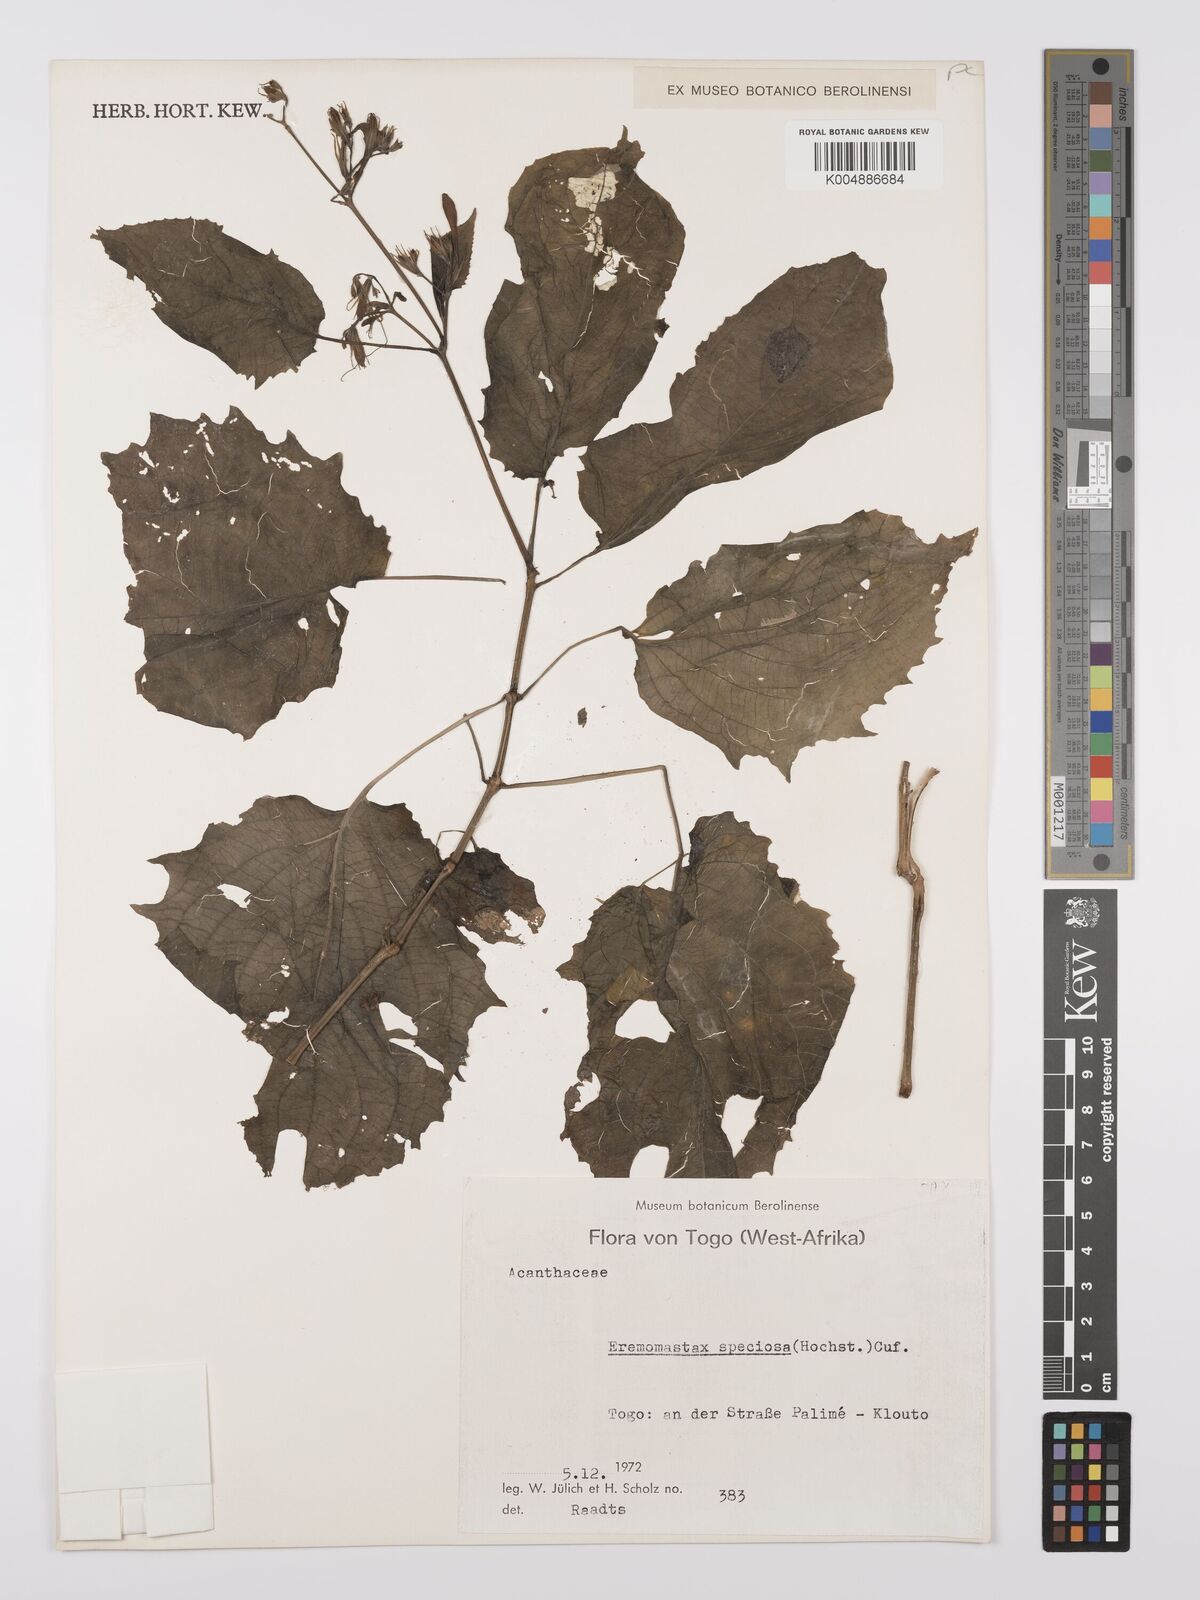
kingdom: Plantae
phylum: Tracheophyta
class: Magnoliopsida
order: Lamiales
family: Acanthaceae
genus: Eremomastax
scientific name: Eremomastax speciosa
